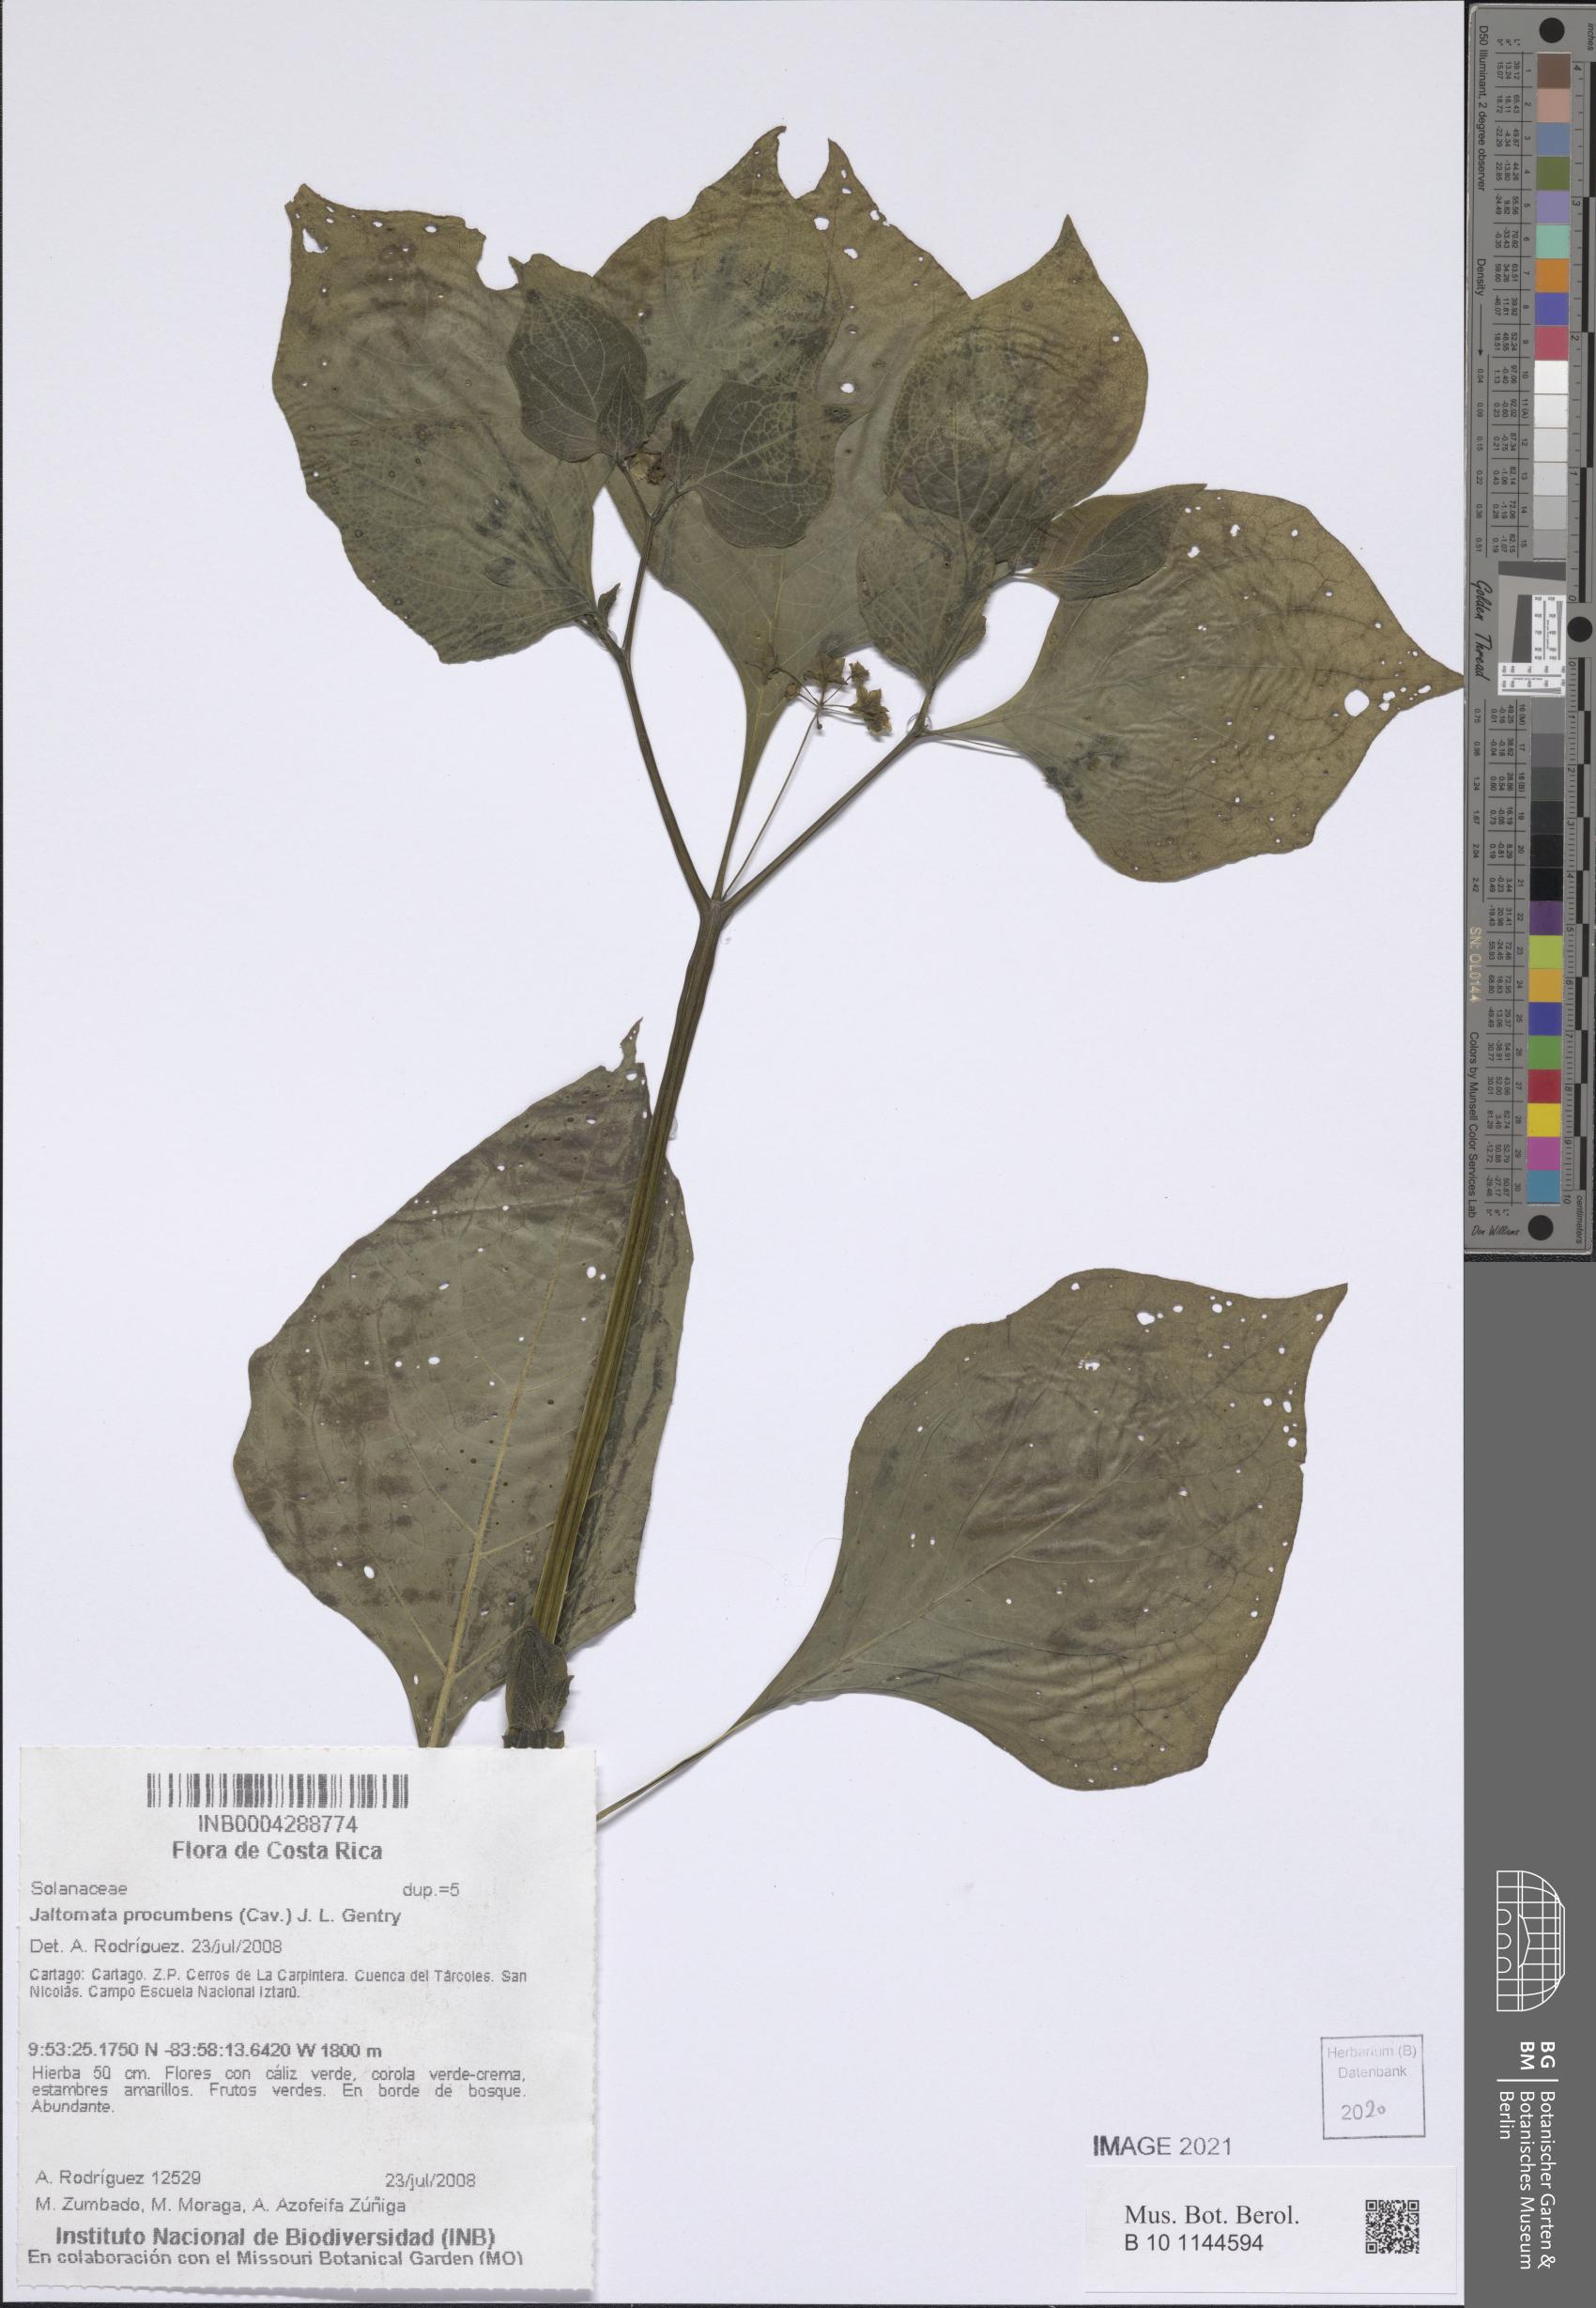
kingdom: Plantae
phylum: Tracheophyta
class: Magnoliopsida
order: Solanales
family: Solanaceae
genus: Jaltomata
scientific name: Jaltomata procumbens
